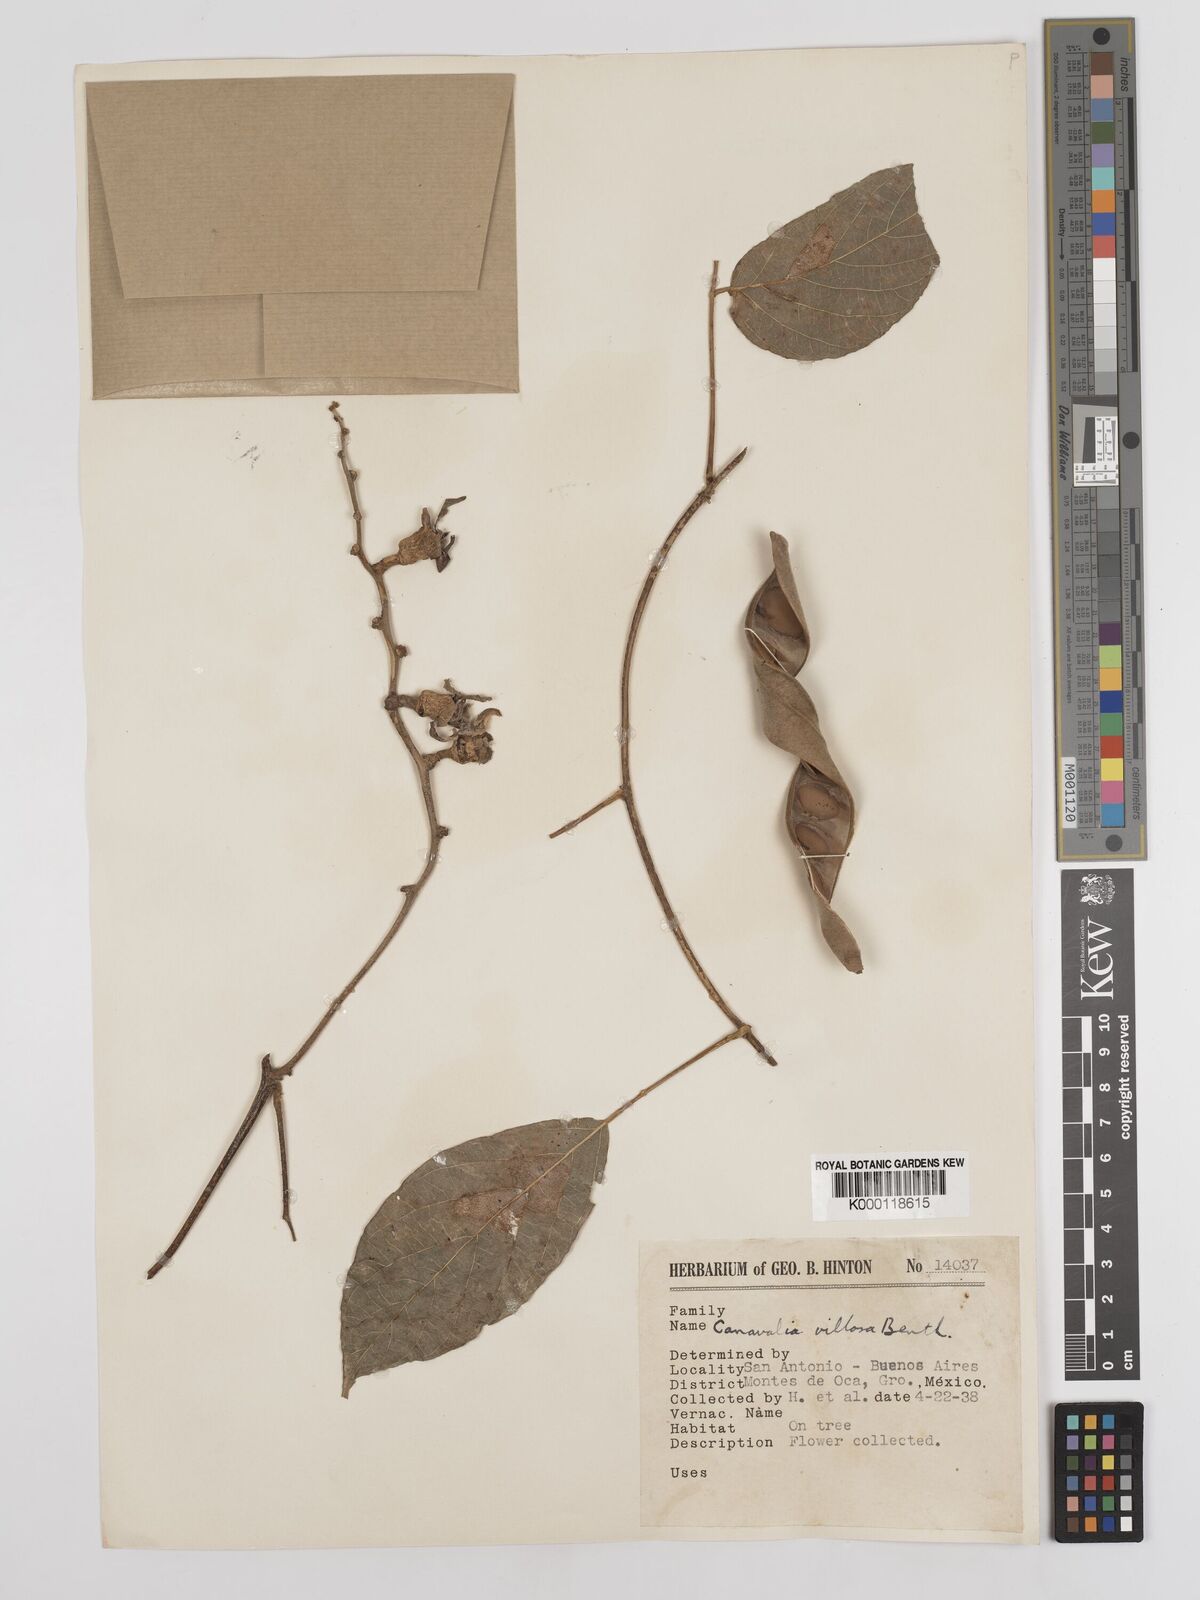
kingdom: Plantae
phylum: Tracheophyta
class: Magnoliopsida
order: Fabales
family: Fabaceae
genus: Canavalia
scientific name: Canavalia villosa
